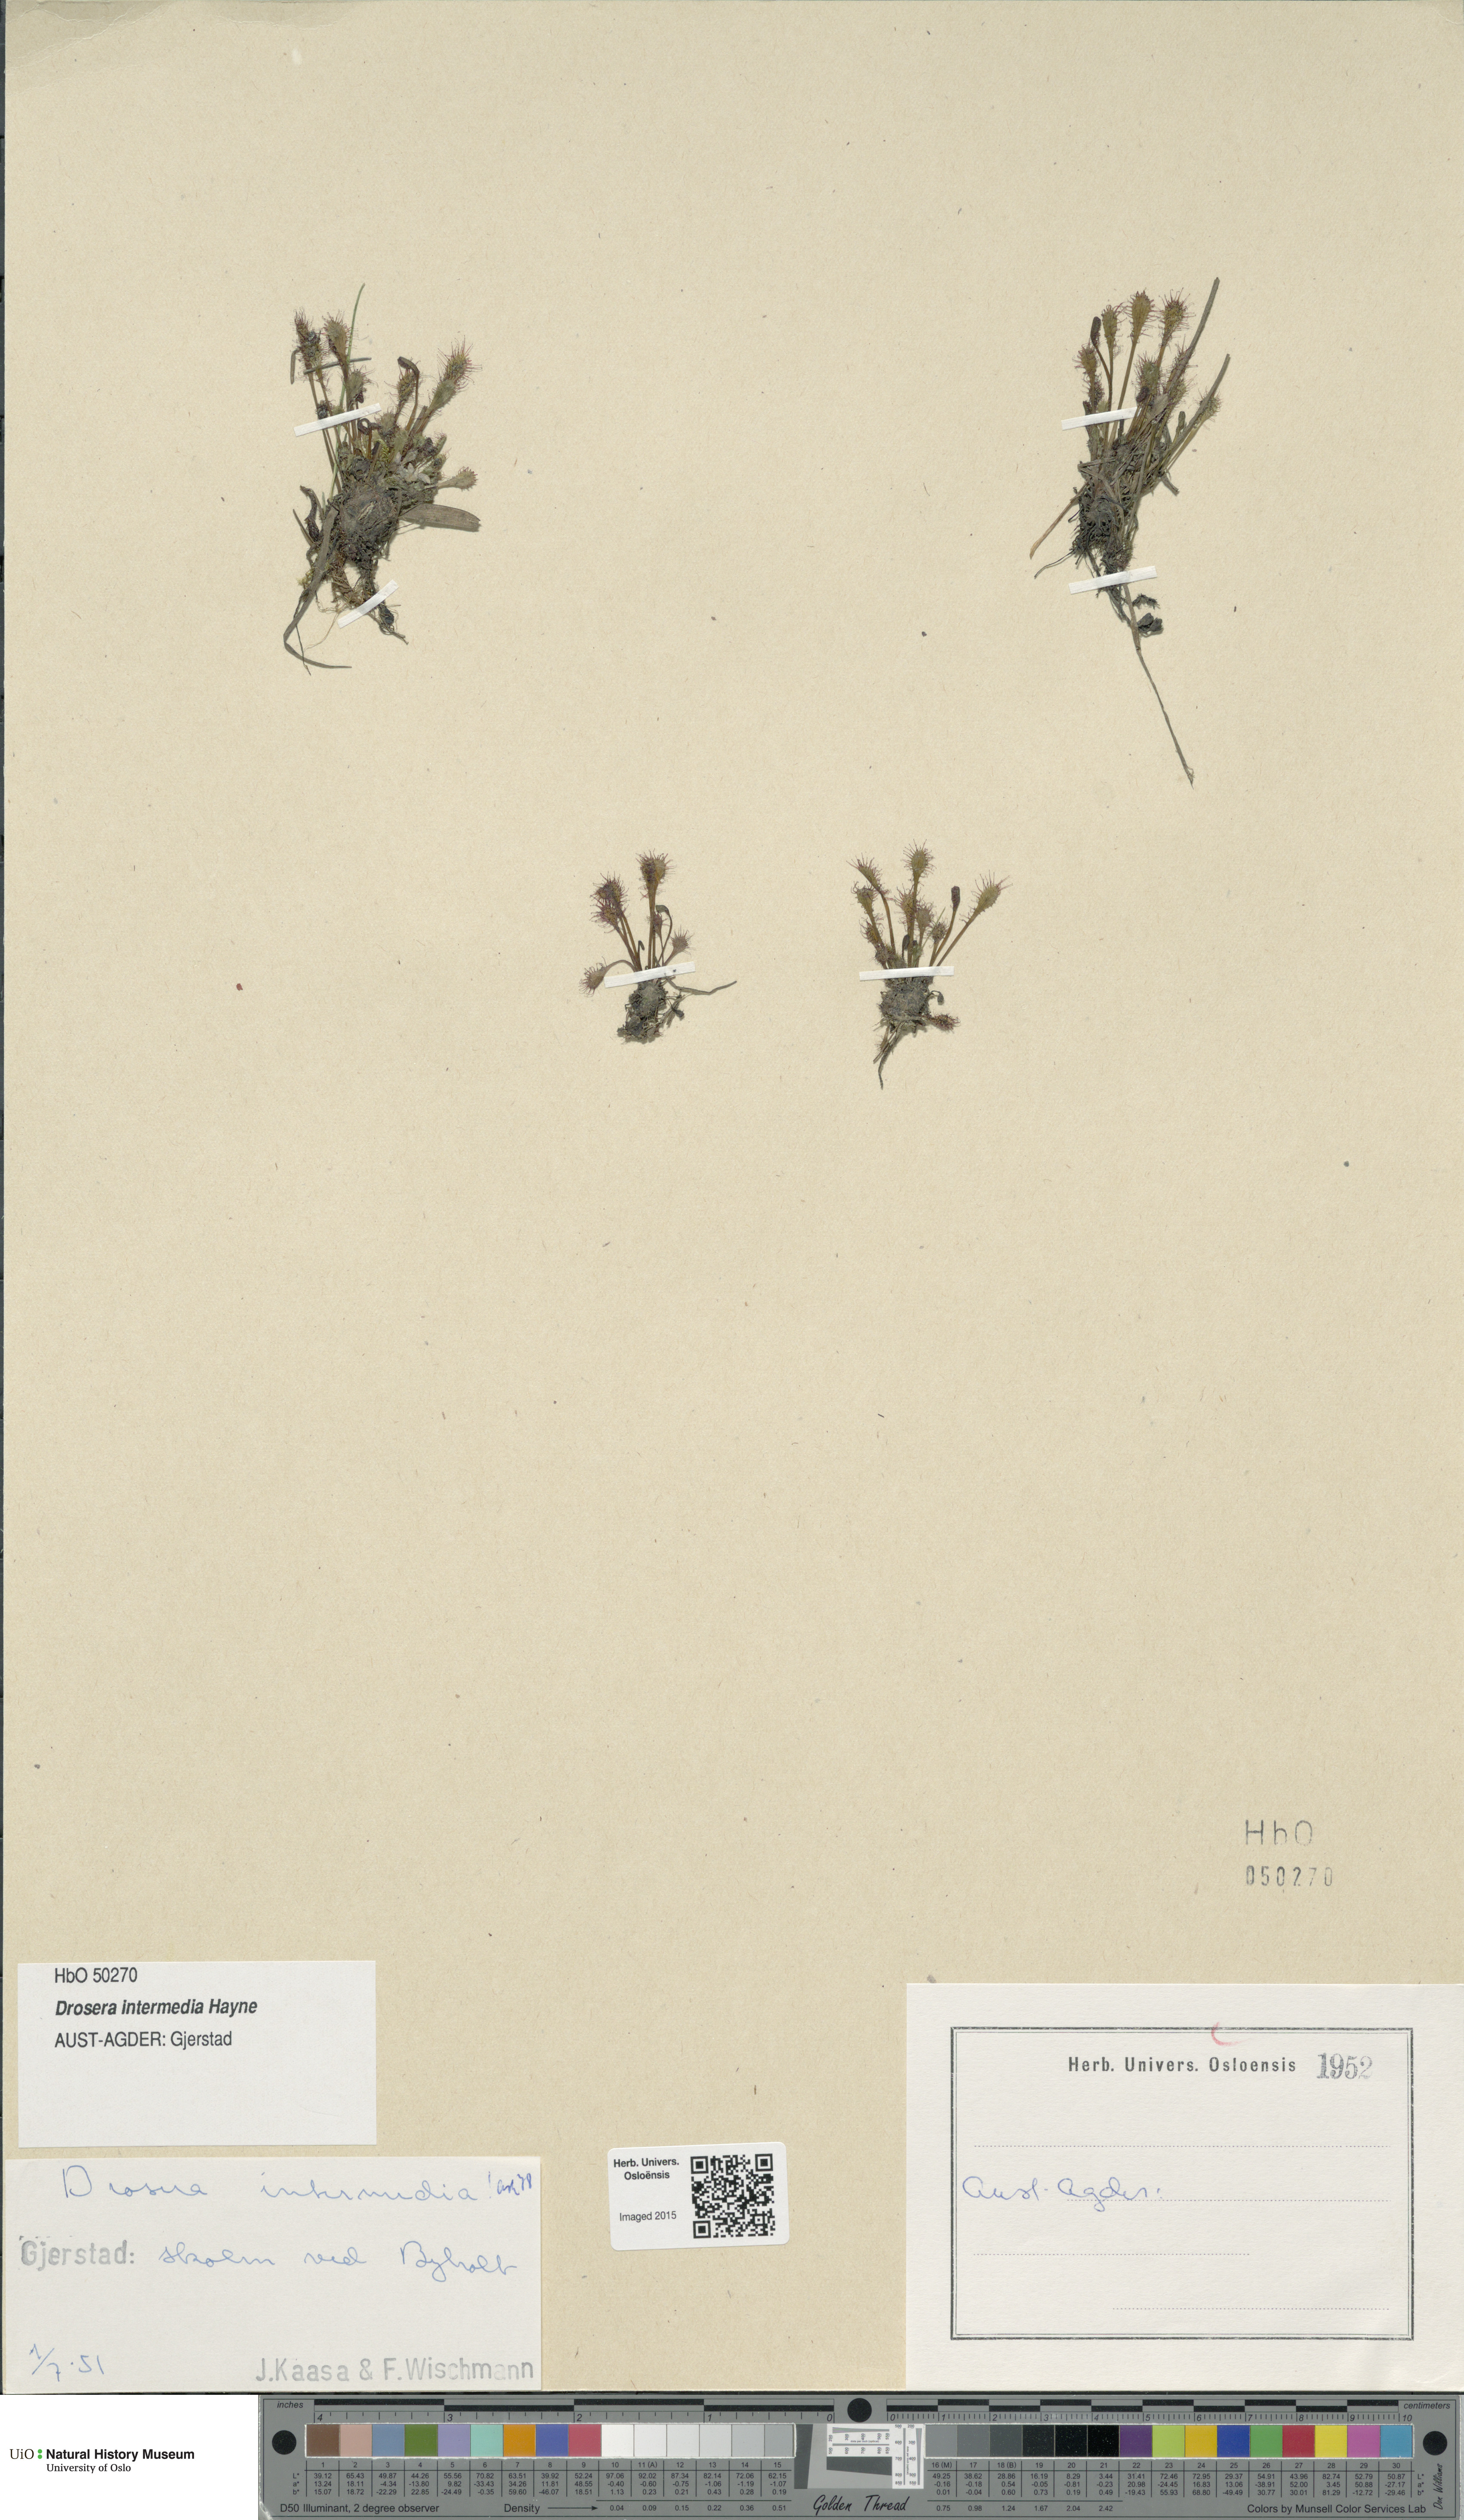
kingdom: Plantae
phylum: Tracheophyta
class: Magnoliopsida
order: Caryophyllales
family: Droseraceae
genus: Drosera
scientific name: Drosera intermedia
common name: Oblong-leaved sundew
